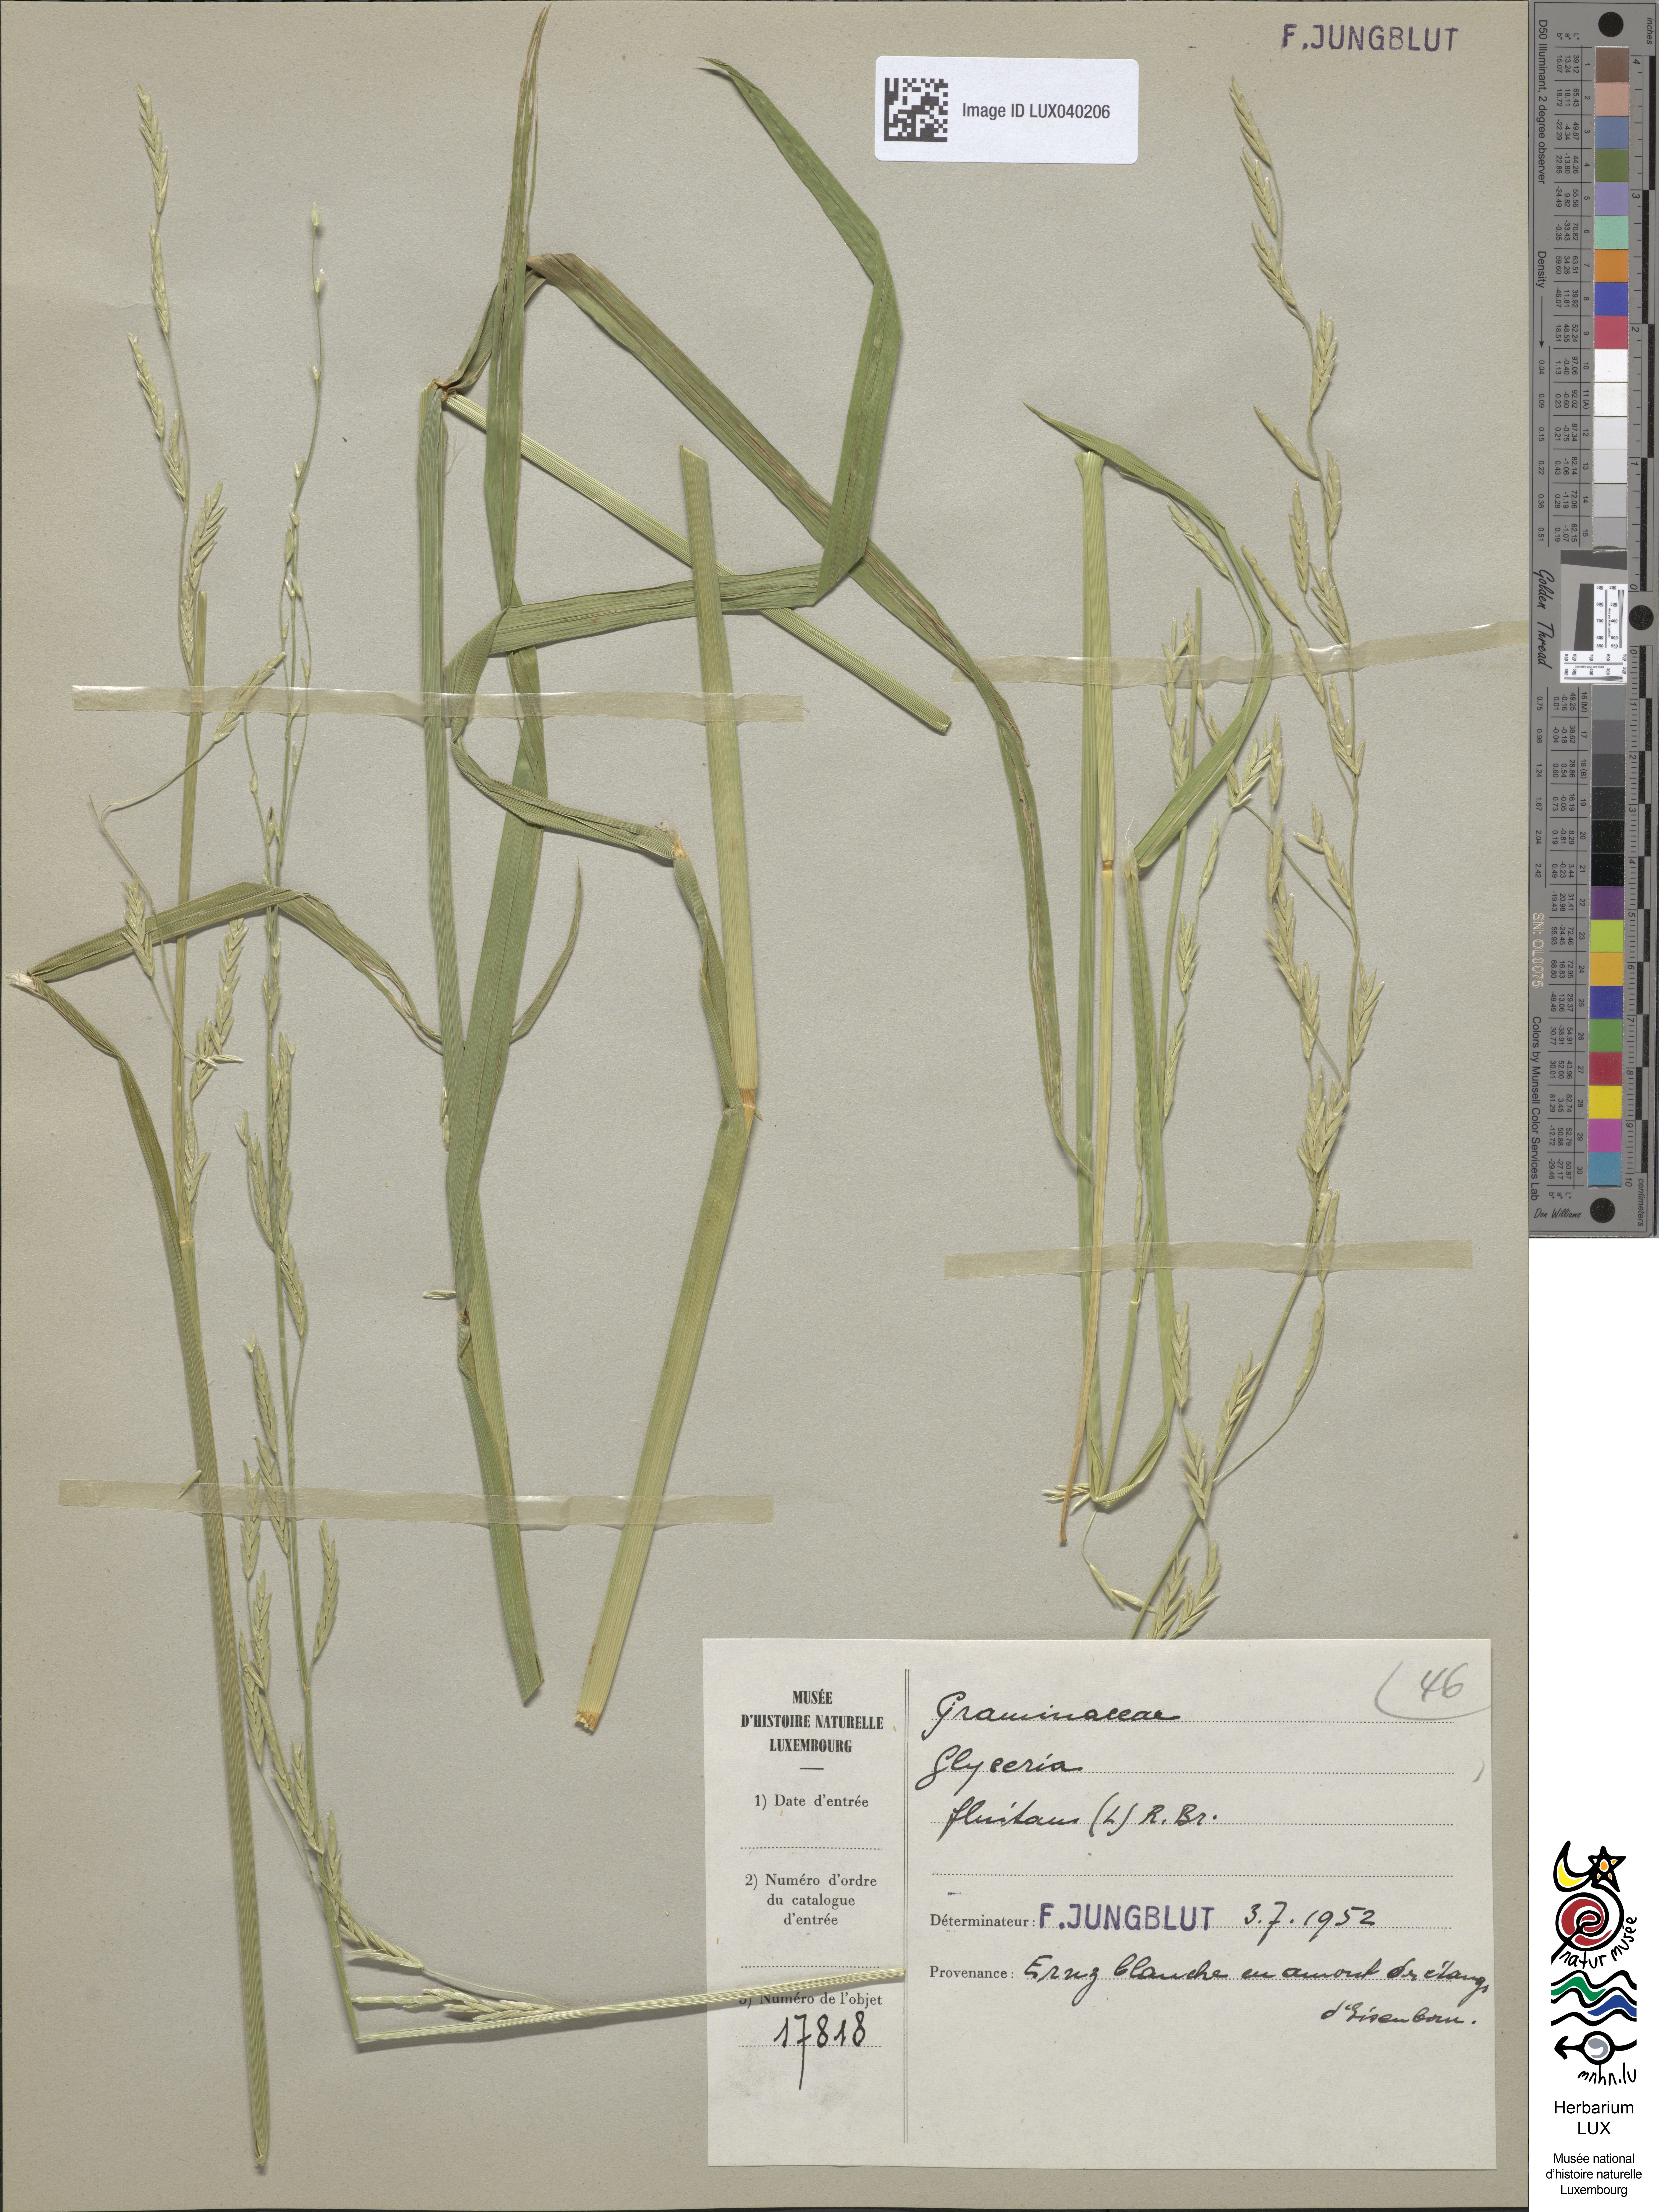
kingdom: Plantae
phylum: Tracheophyta
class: Liliopsida
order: Poales
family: Poaceae
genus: Glyceria
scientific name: Glyceria fluitans
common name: Floating sweet-grass
